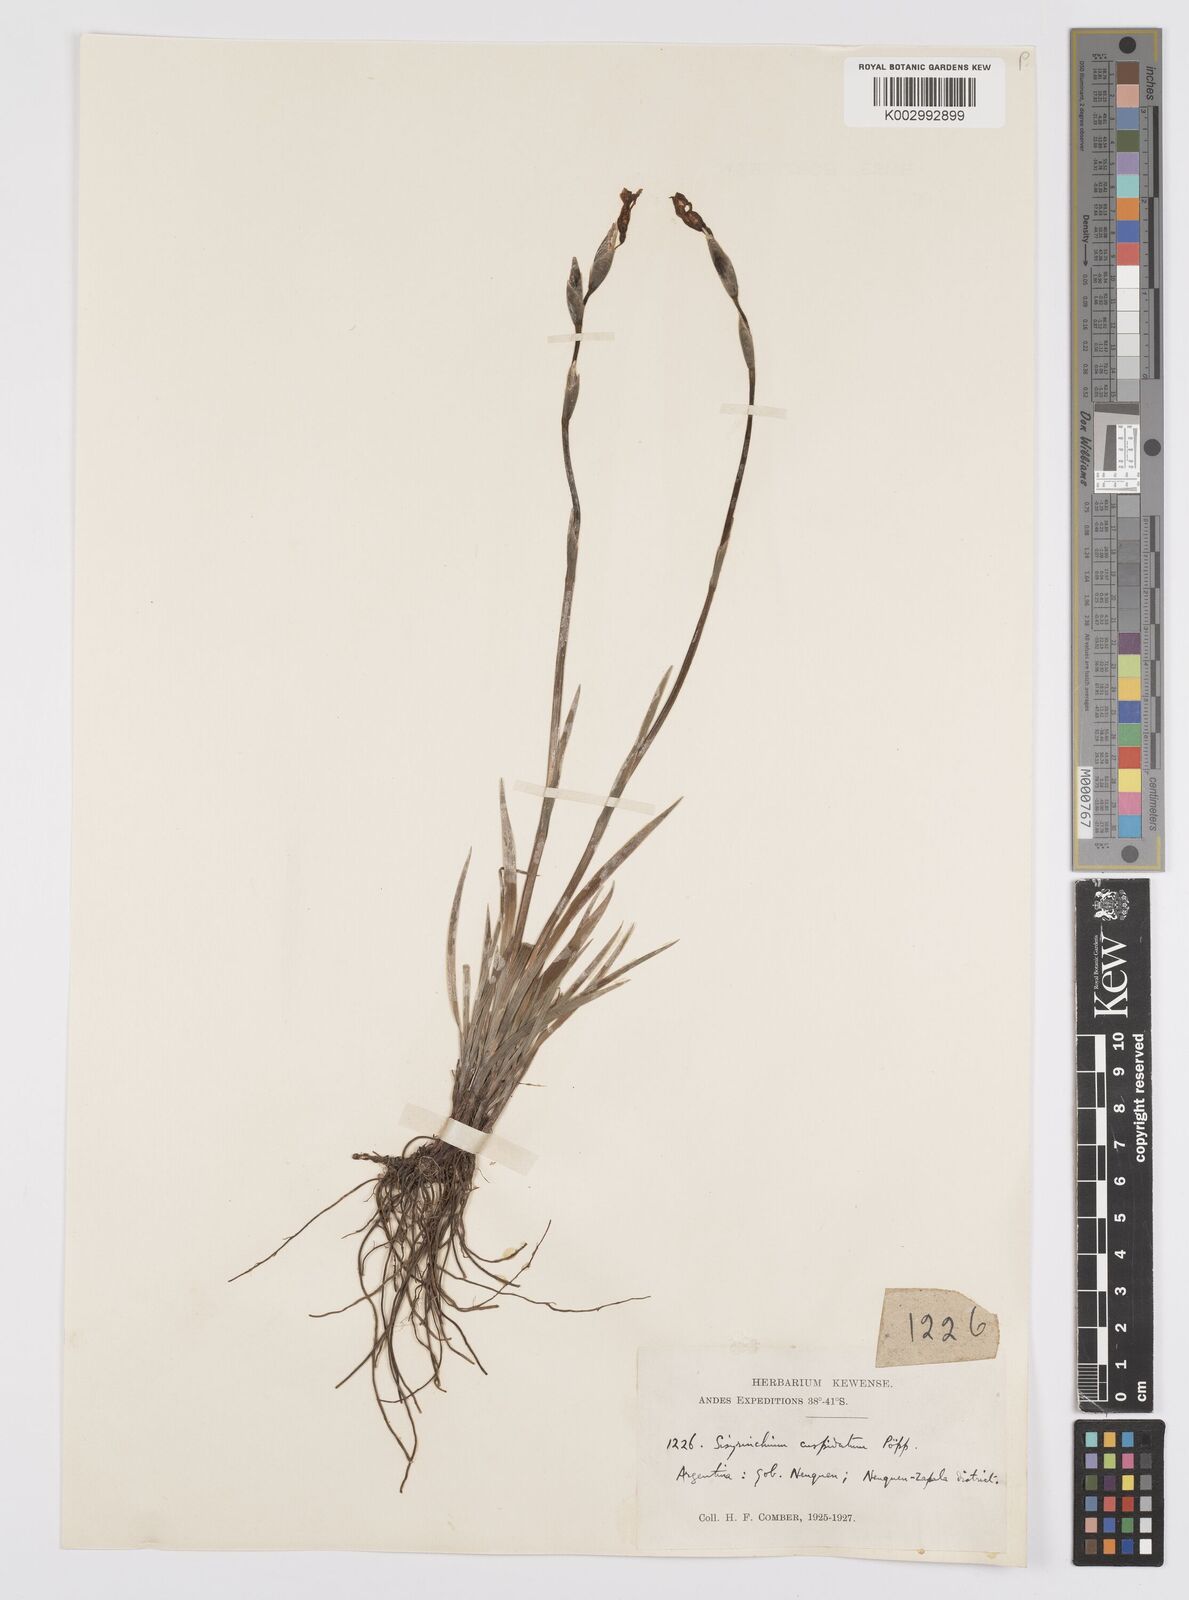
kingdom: Plantae
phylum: Tracheophyta
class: Liliopsida
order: Asparagales
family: Iridaceae
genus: Sisyrinchium
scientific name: Sisyrinchium cuspidatum
